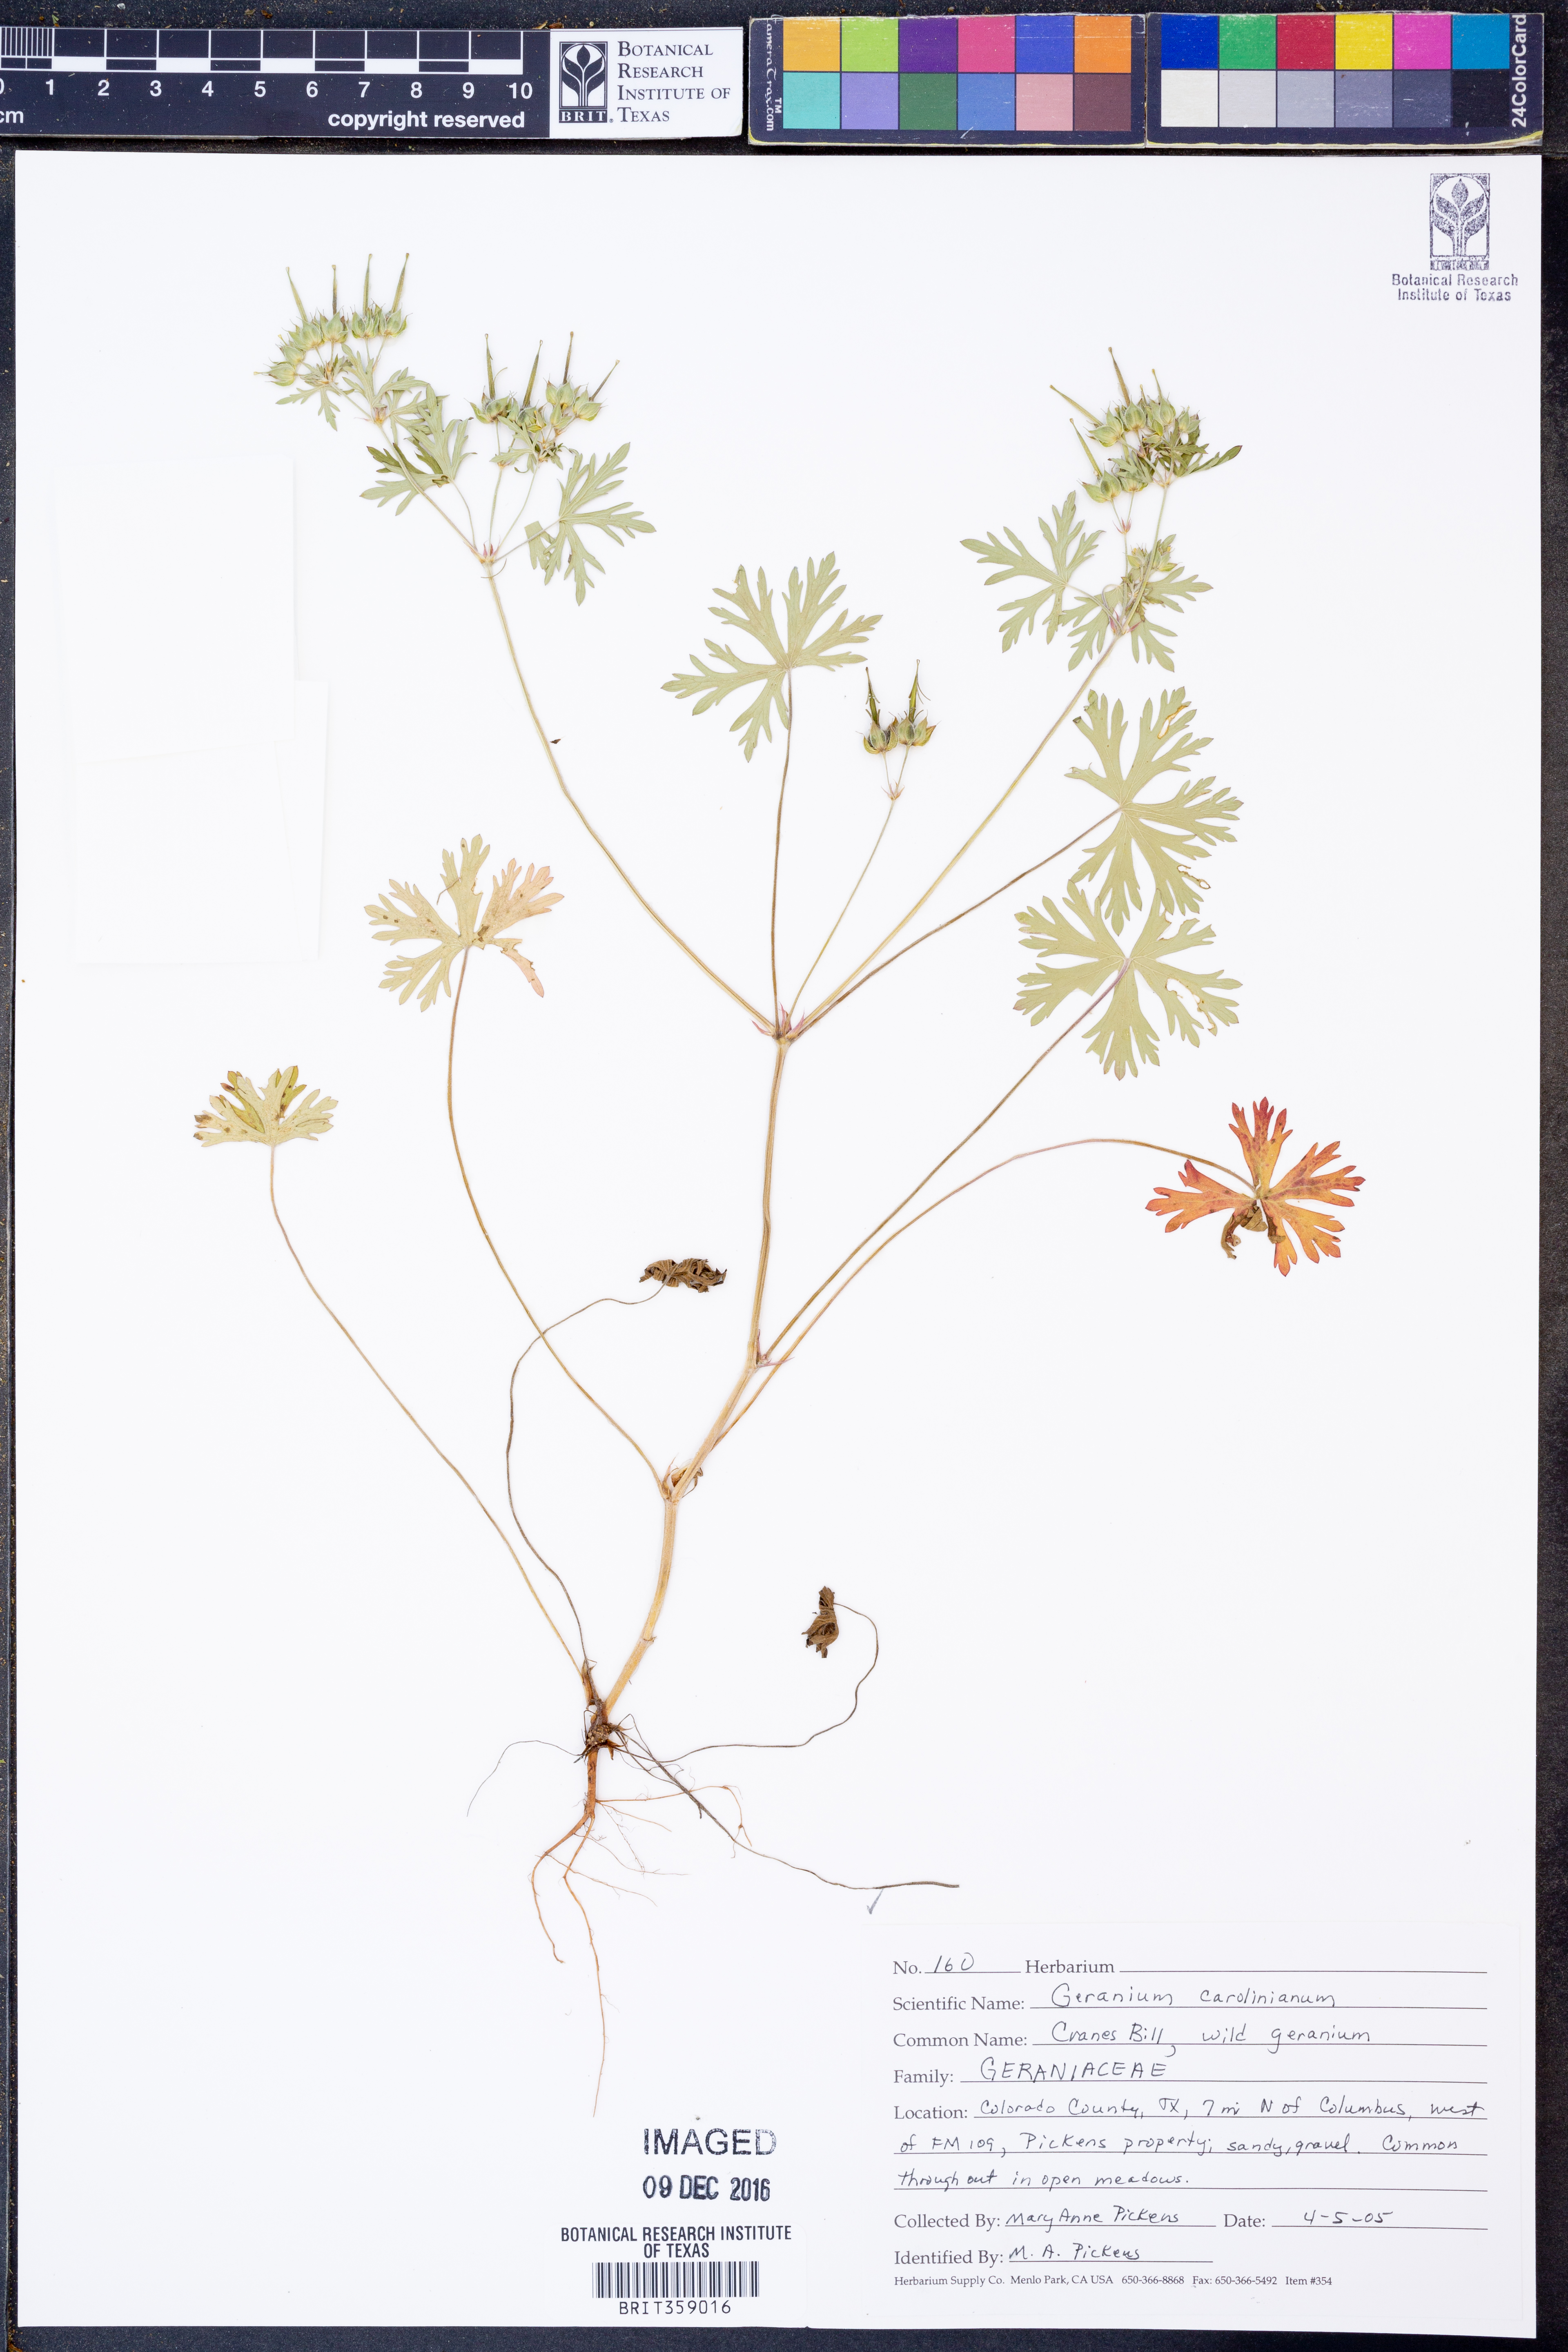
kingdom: Plantae
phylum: Tracheophyta
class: Magnoliopsida
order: Geraniales
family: Geraniaceae
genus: Geranium
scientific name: Geranium carolinianum
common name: Carolina crane's-bill
